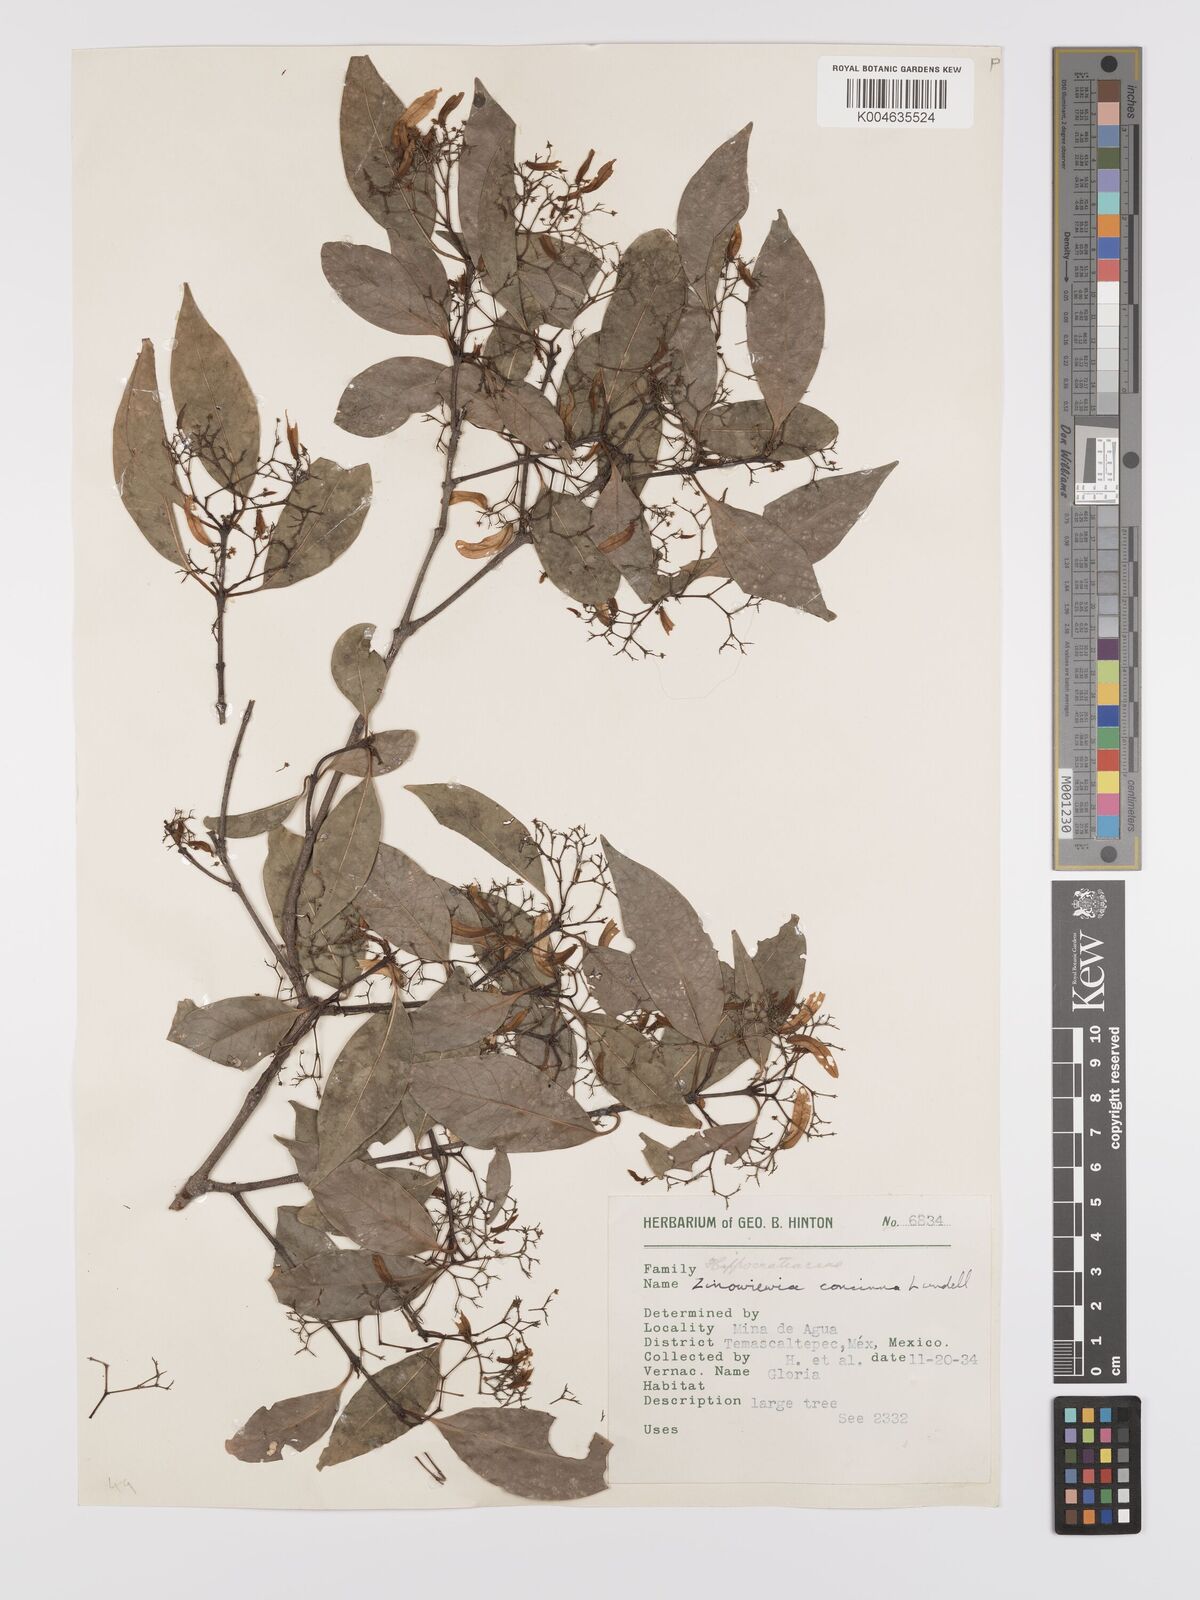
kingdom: Plantae
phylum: Tracheophyta
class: Magnoliopsida
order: Celastrales
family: Celastraceae
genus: Zinowiewia
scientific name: Zinowiewia concinna
